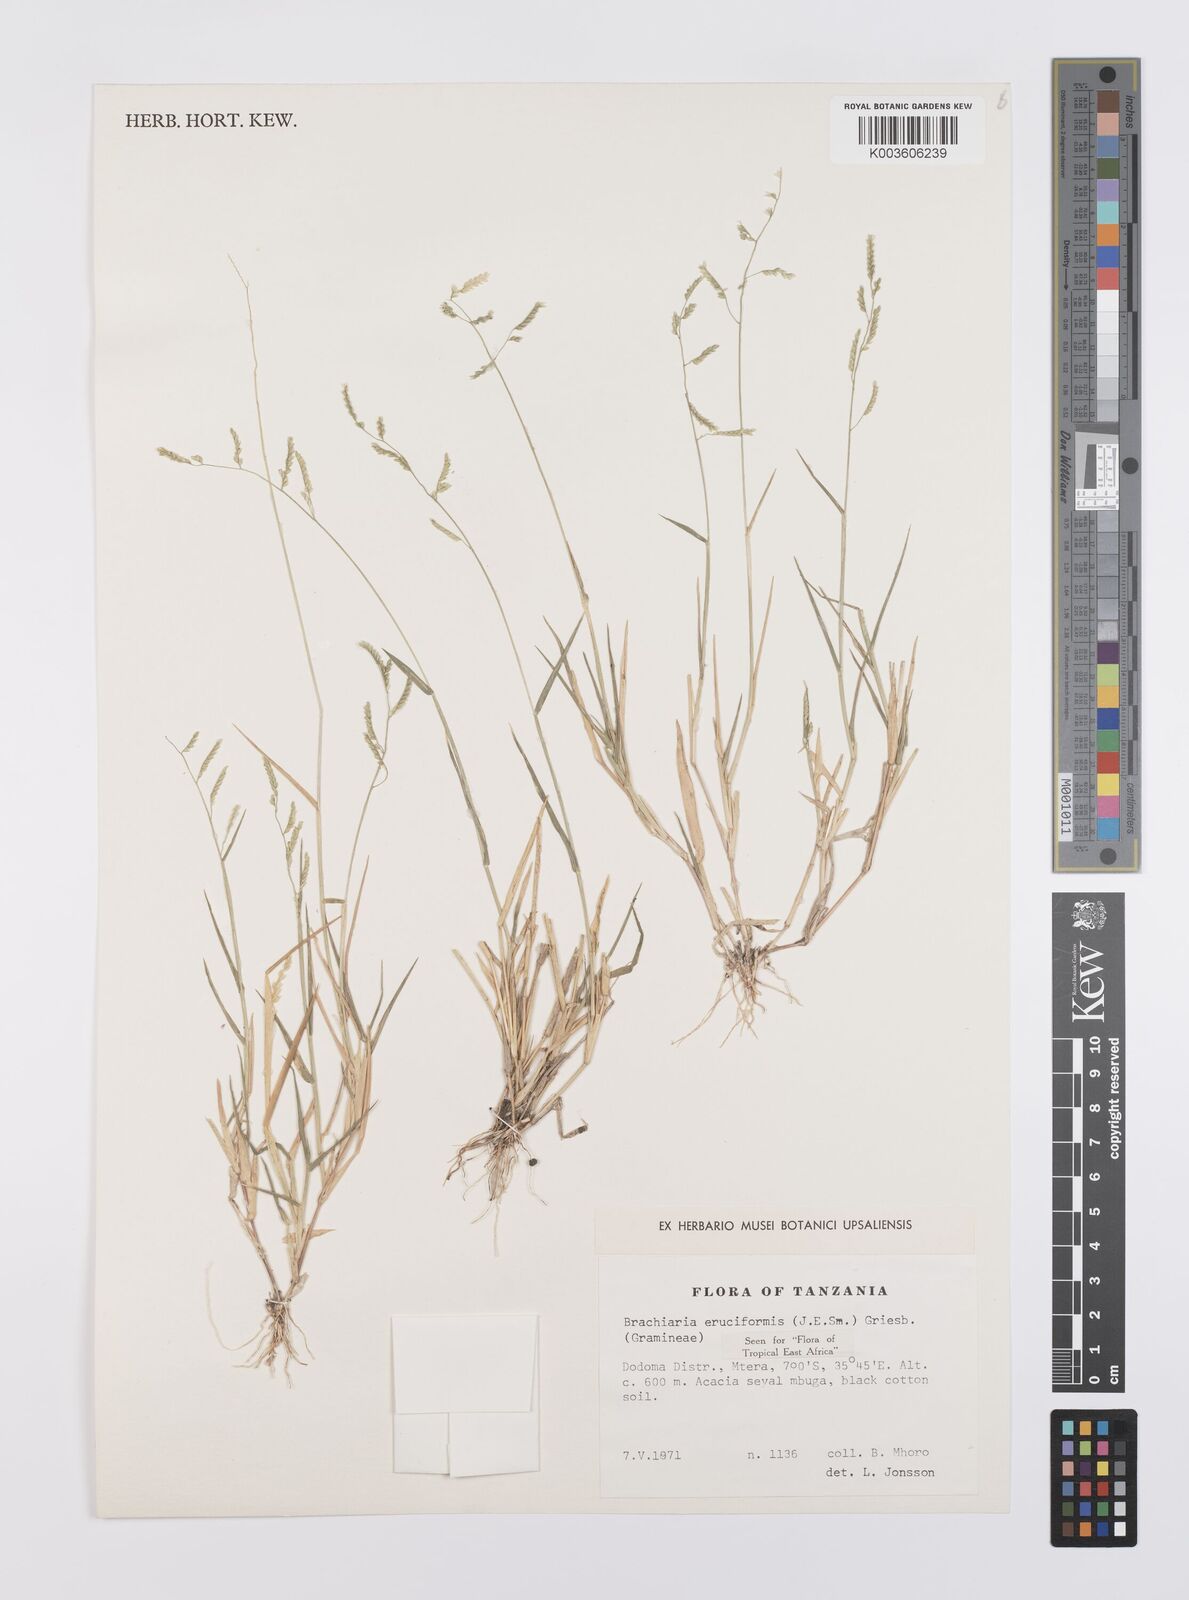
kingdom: Plantae
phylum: Tracheophyta
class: Liliopsida
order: Poales
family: Poaceae
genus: Moorochloa
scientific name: Moorochloa eruciformis
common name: Sweet signalgrass
